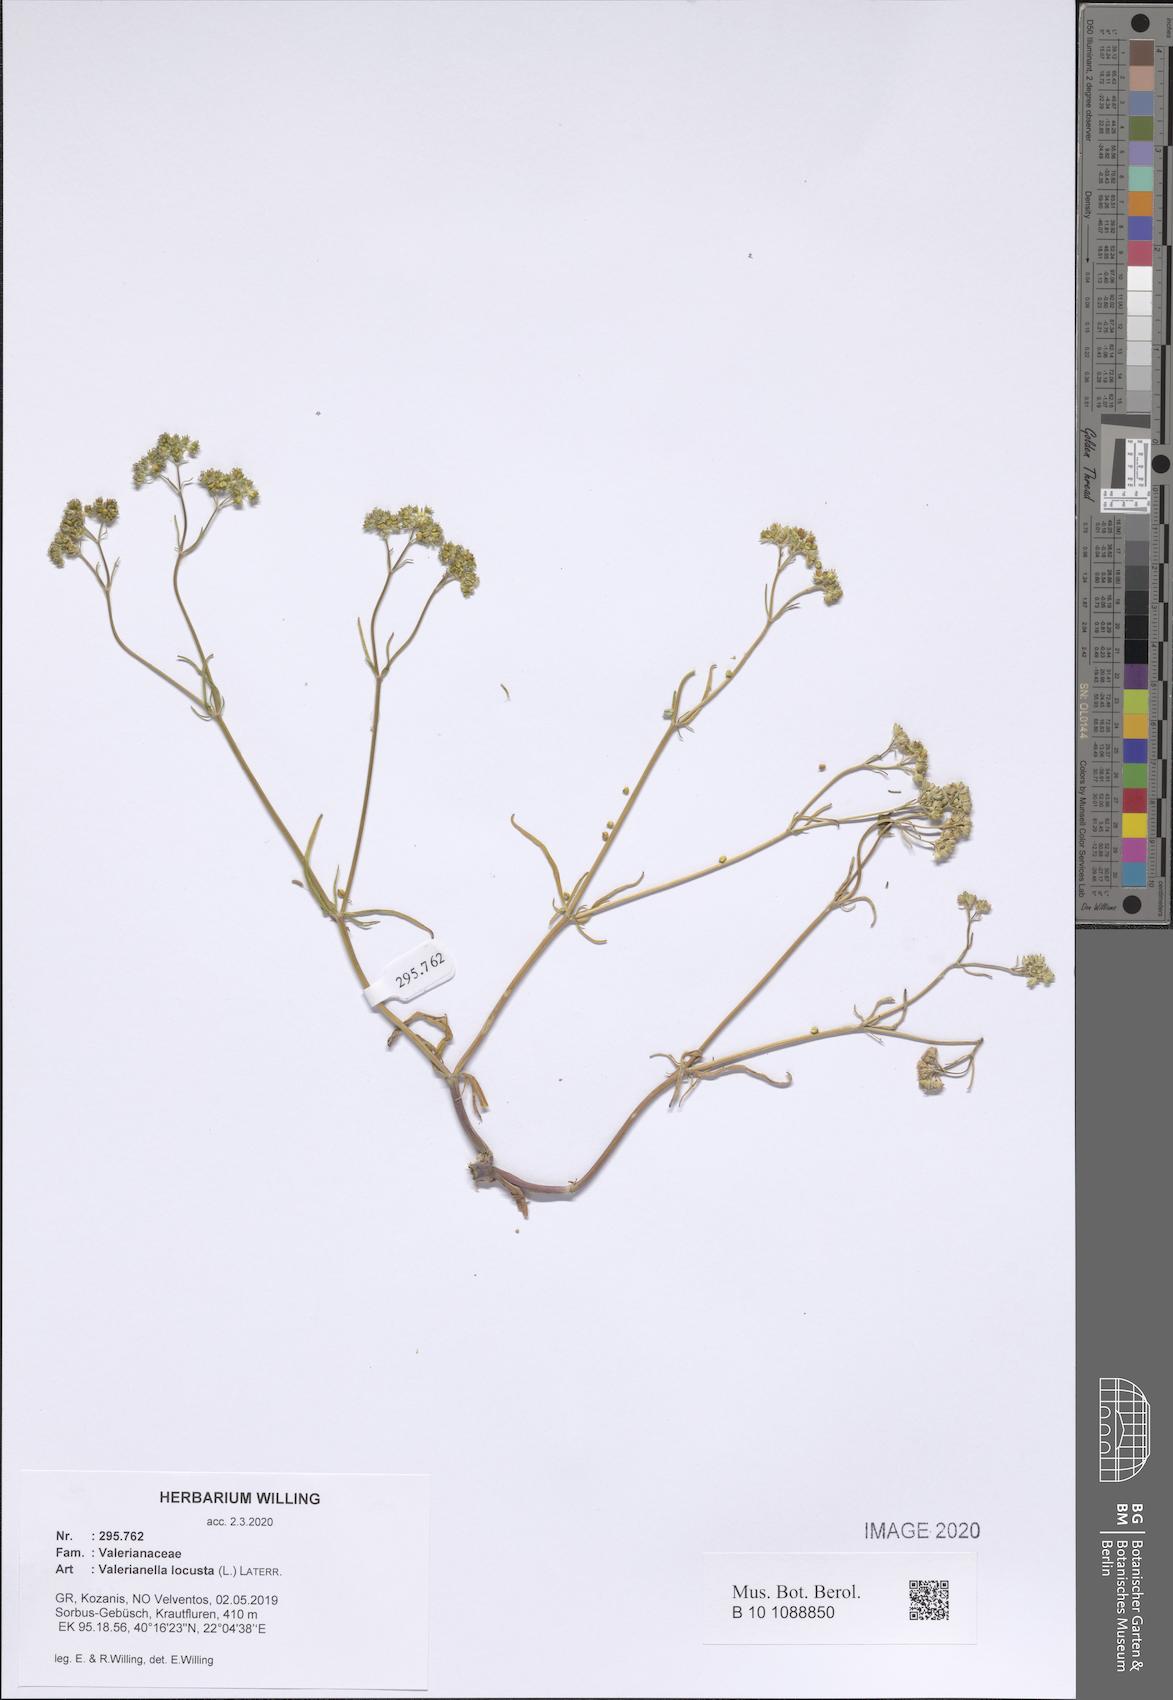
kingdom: Plantae
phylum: Tracheophyta
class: Magnoliopsida
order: Dipsacales
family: Caprifoliaceae
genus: Valerianella
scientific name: Valerianella locusta
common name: Common cornsalad
